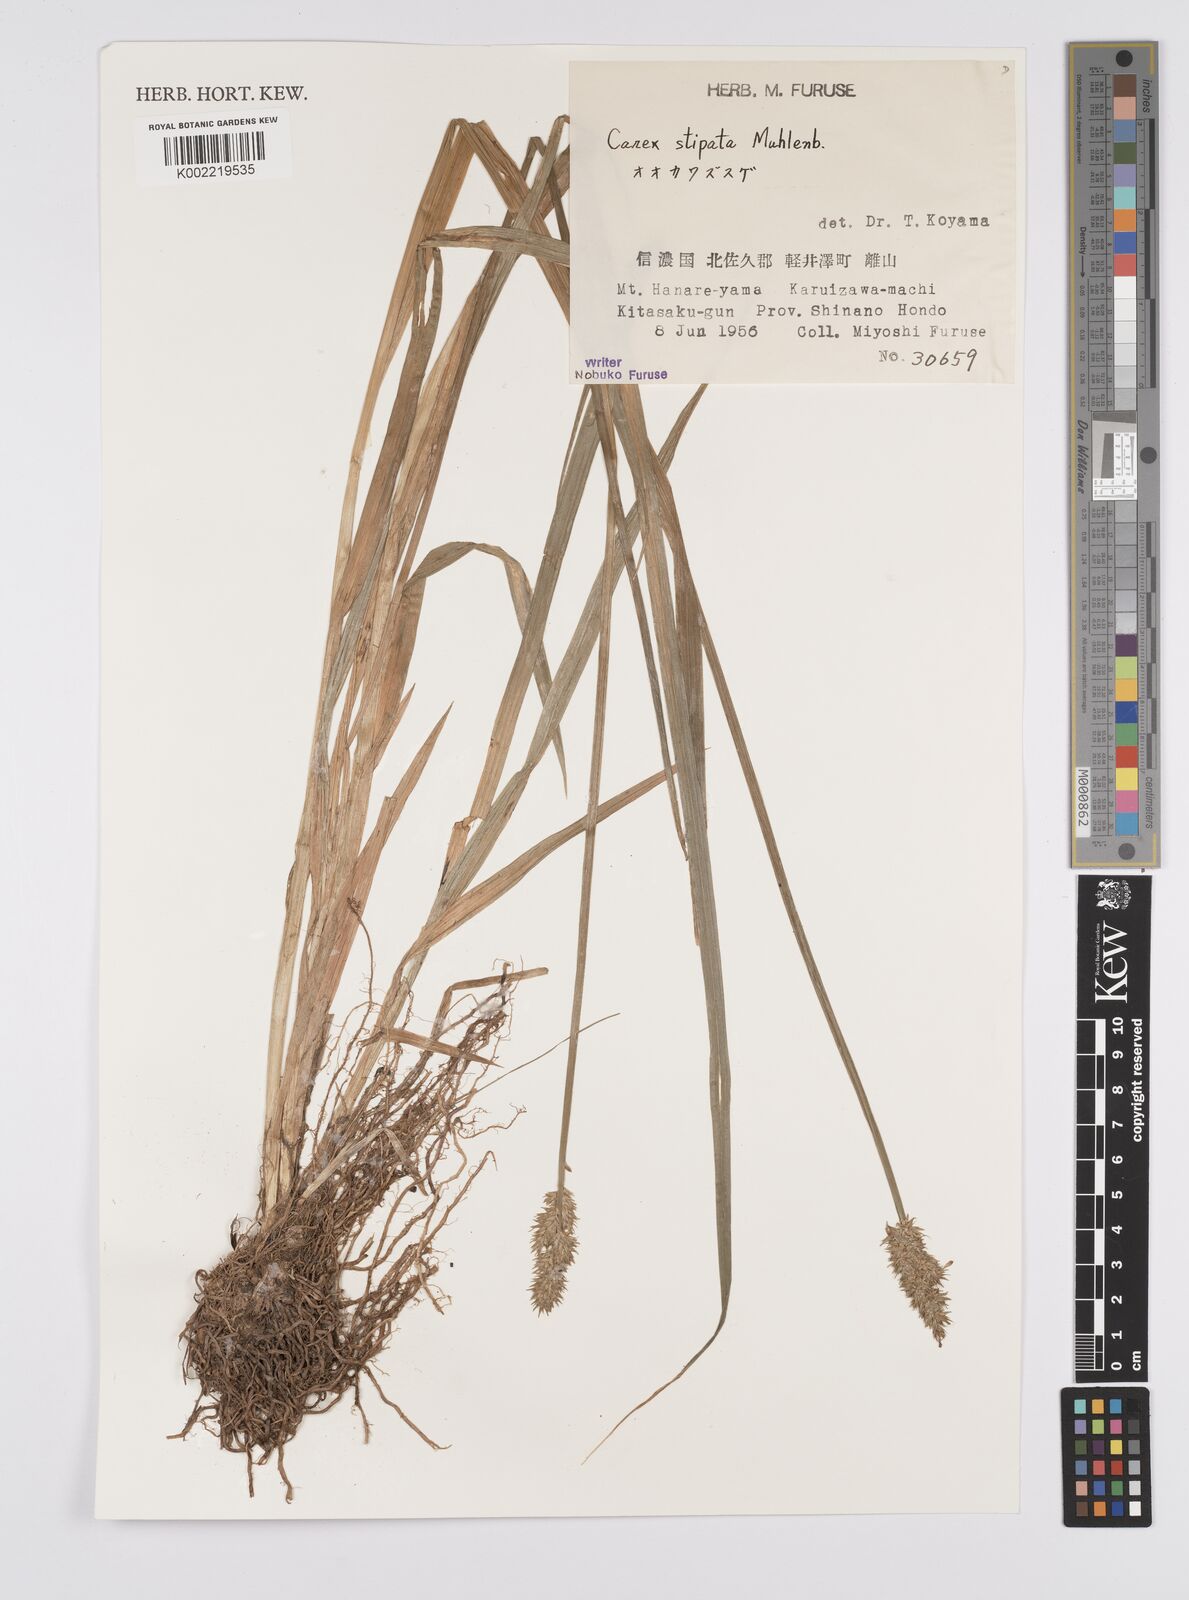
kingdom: Plantae
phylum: Tracheophyta
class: Liliopsida
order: Poales
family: Cyperaceae
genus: Carex
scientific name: Carex stipata
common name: Awl-fruited sedge
